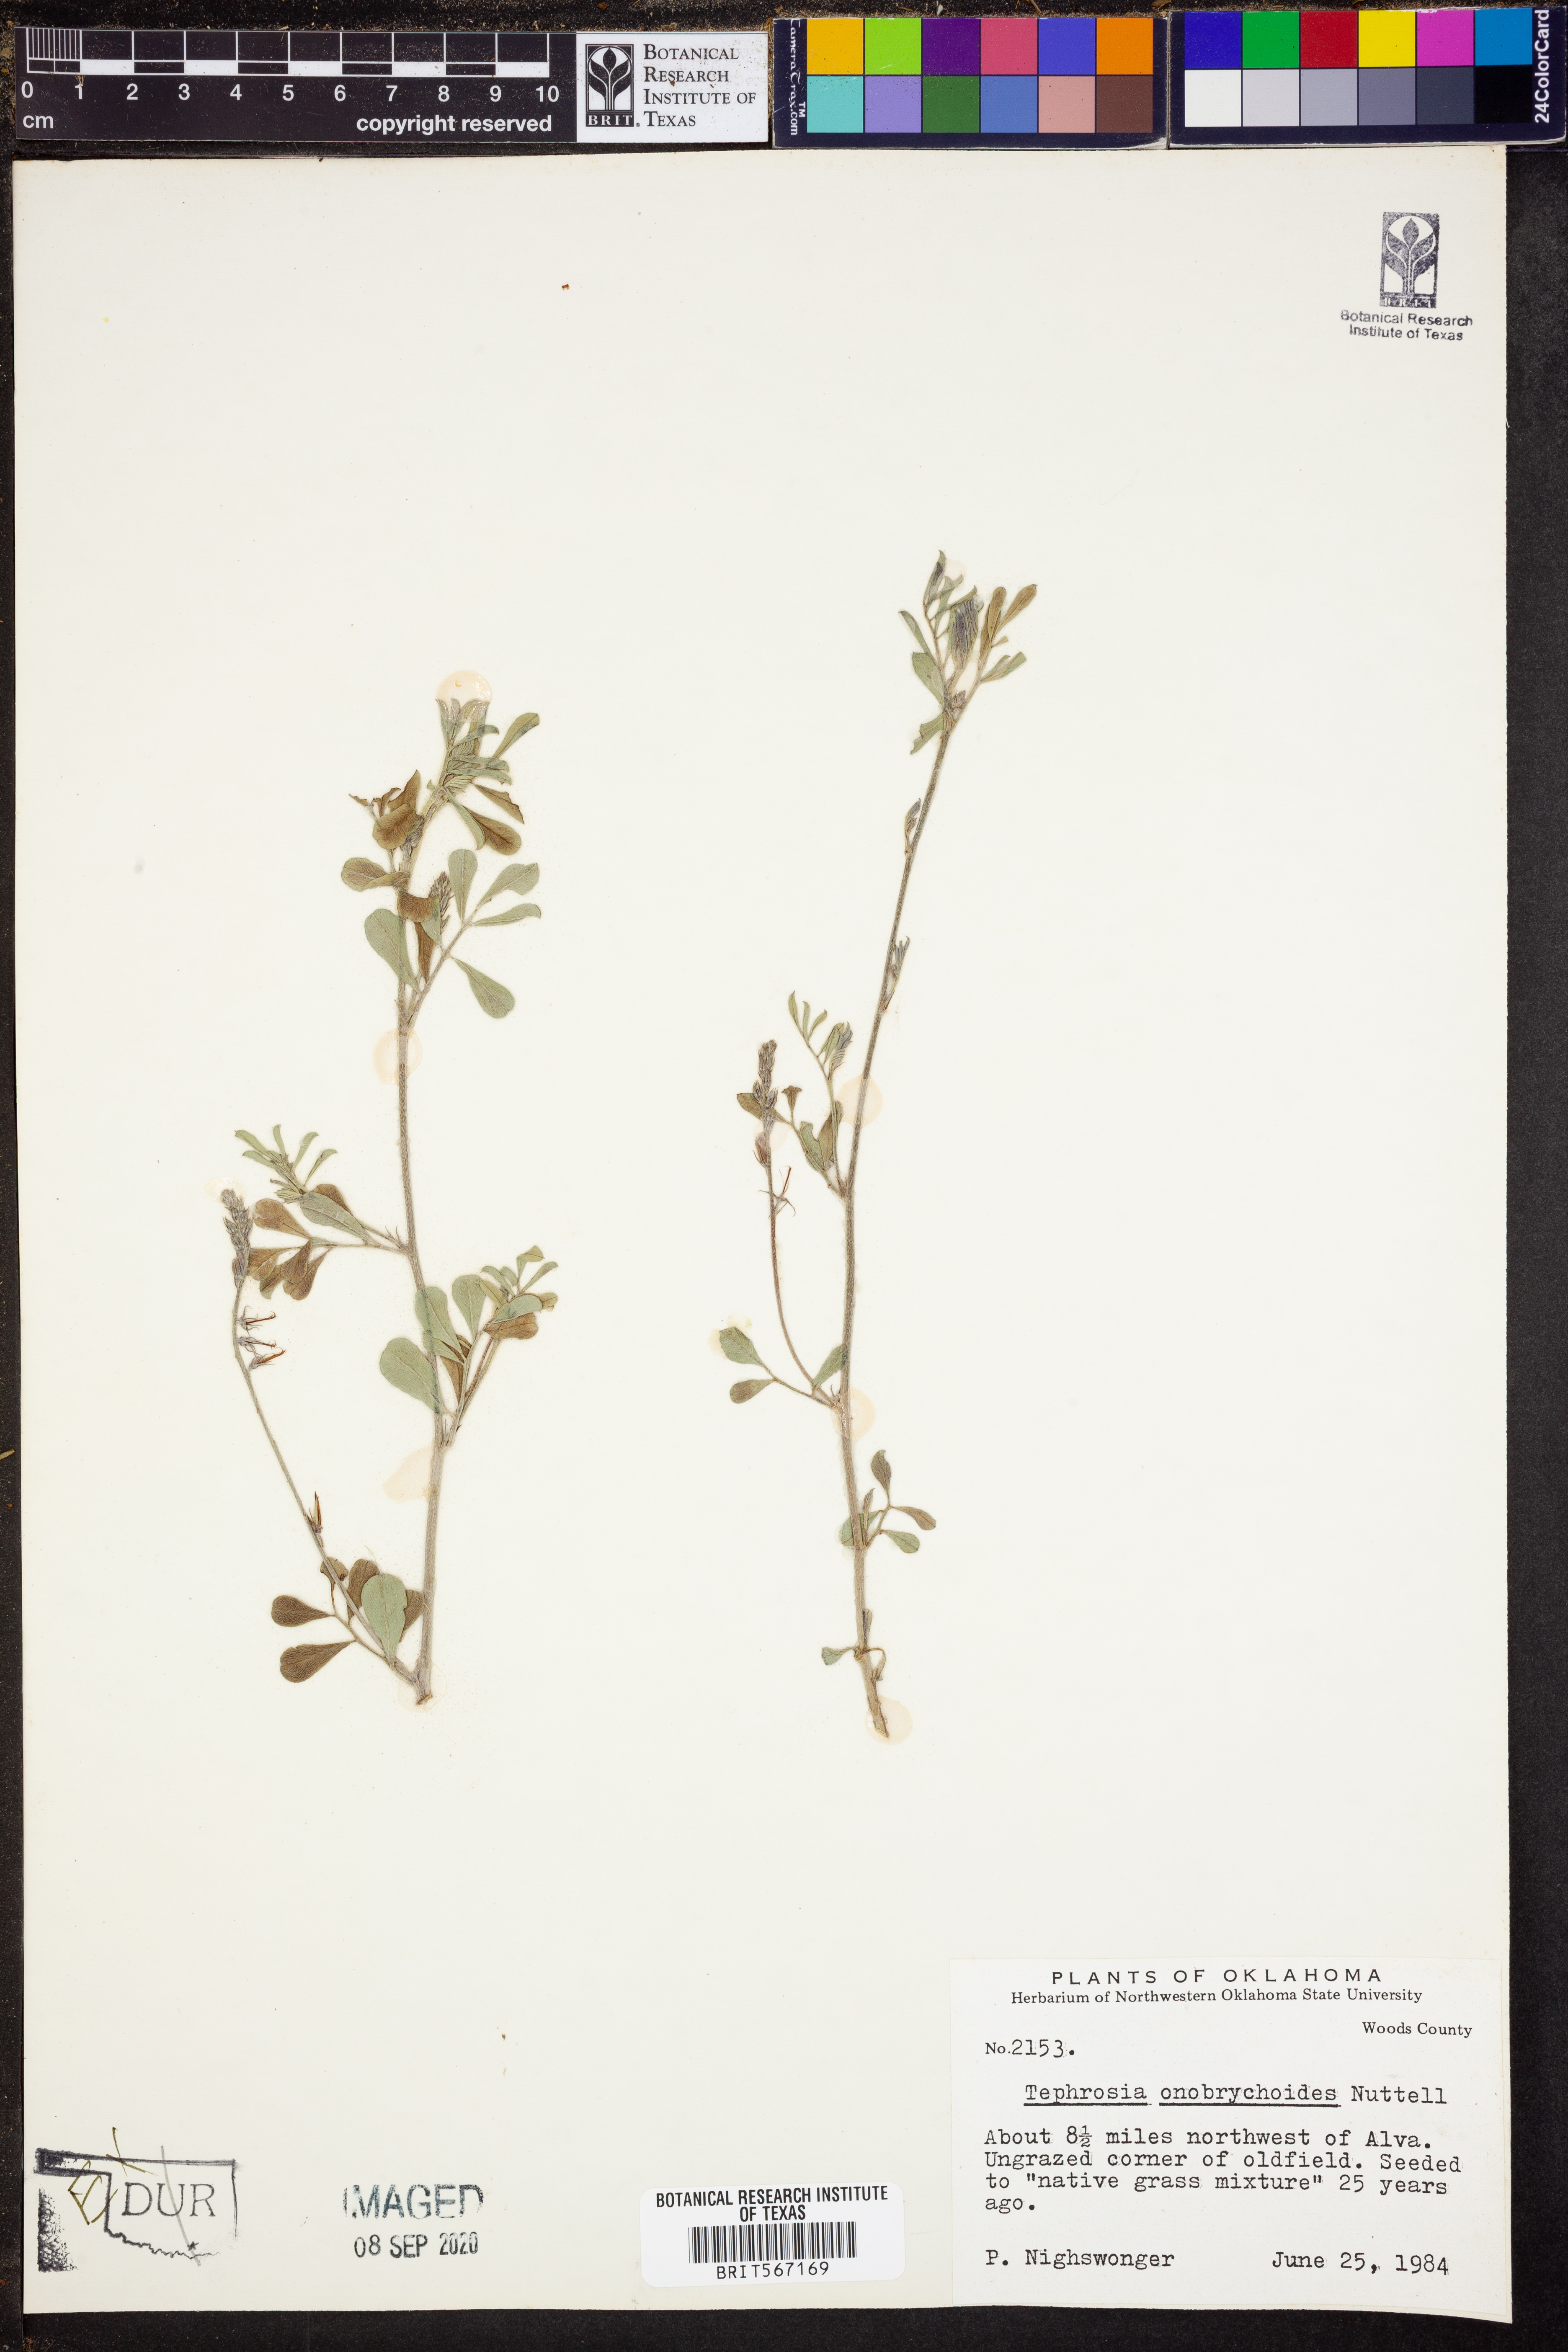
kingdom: Plantae
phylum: Tracheophyta
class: Magnoliopsida
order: Fabales
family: Fabaceae
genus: Tephrosia
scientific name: Tephrosia onobrychoides
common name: Multi-bloom hoary-pea
